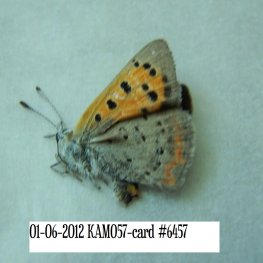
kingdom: Animalia
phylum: Arthropoda
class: Insecta
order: Lepidoptera
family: Lycaenidae
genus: Lycaena
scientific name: Lycaena phlaeas
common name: American Copper
